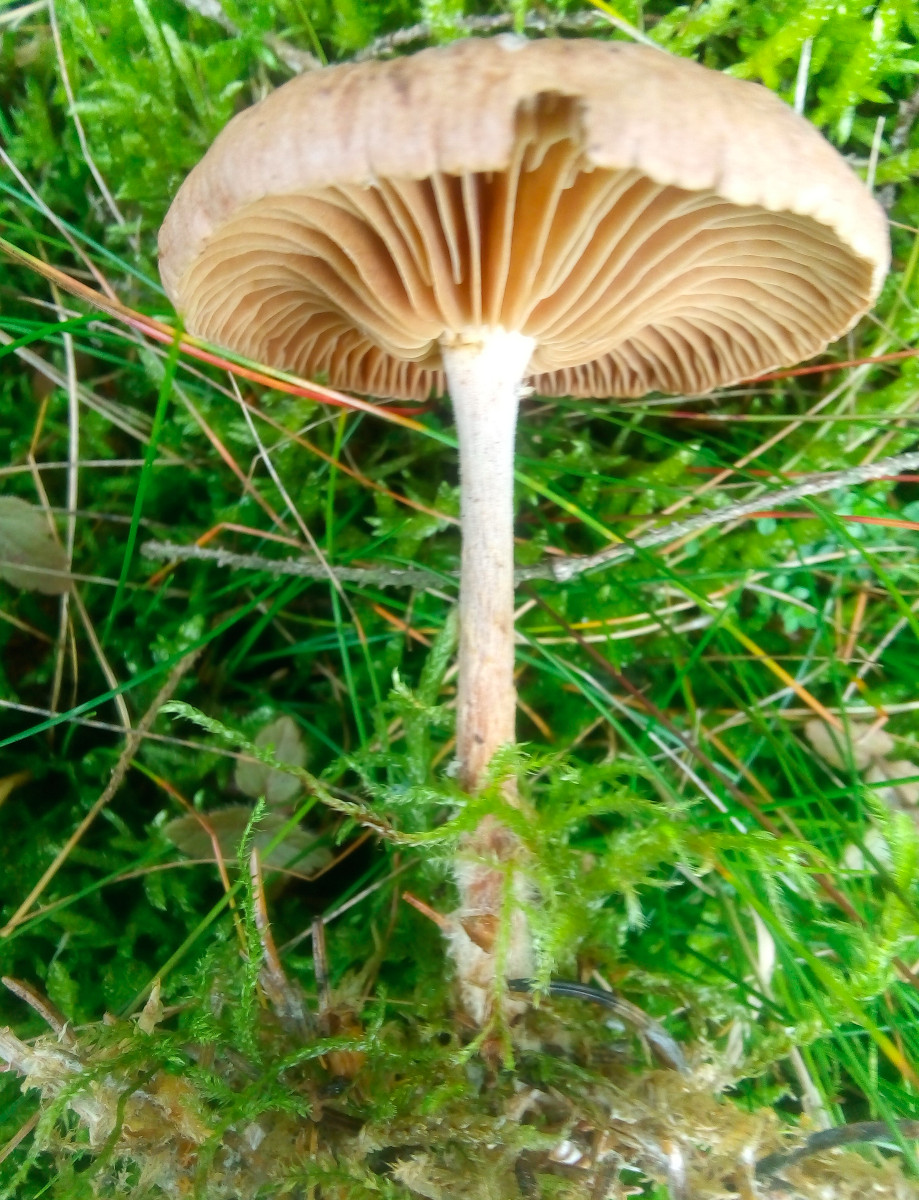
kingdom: Fungi
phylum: Basidiomycota
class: Agaricomycetes
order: Agaricales
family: Omphalotaceae
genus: Collybiopsis
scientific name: Collybiopsis peronata
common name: bestøvlet fladhat
